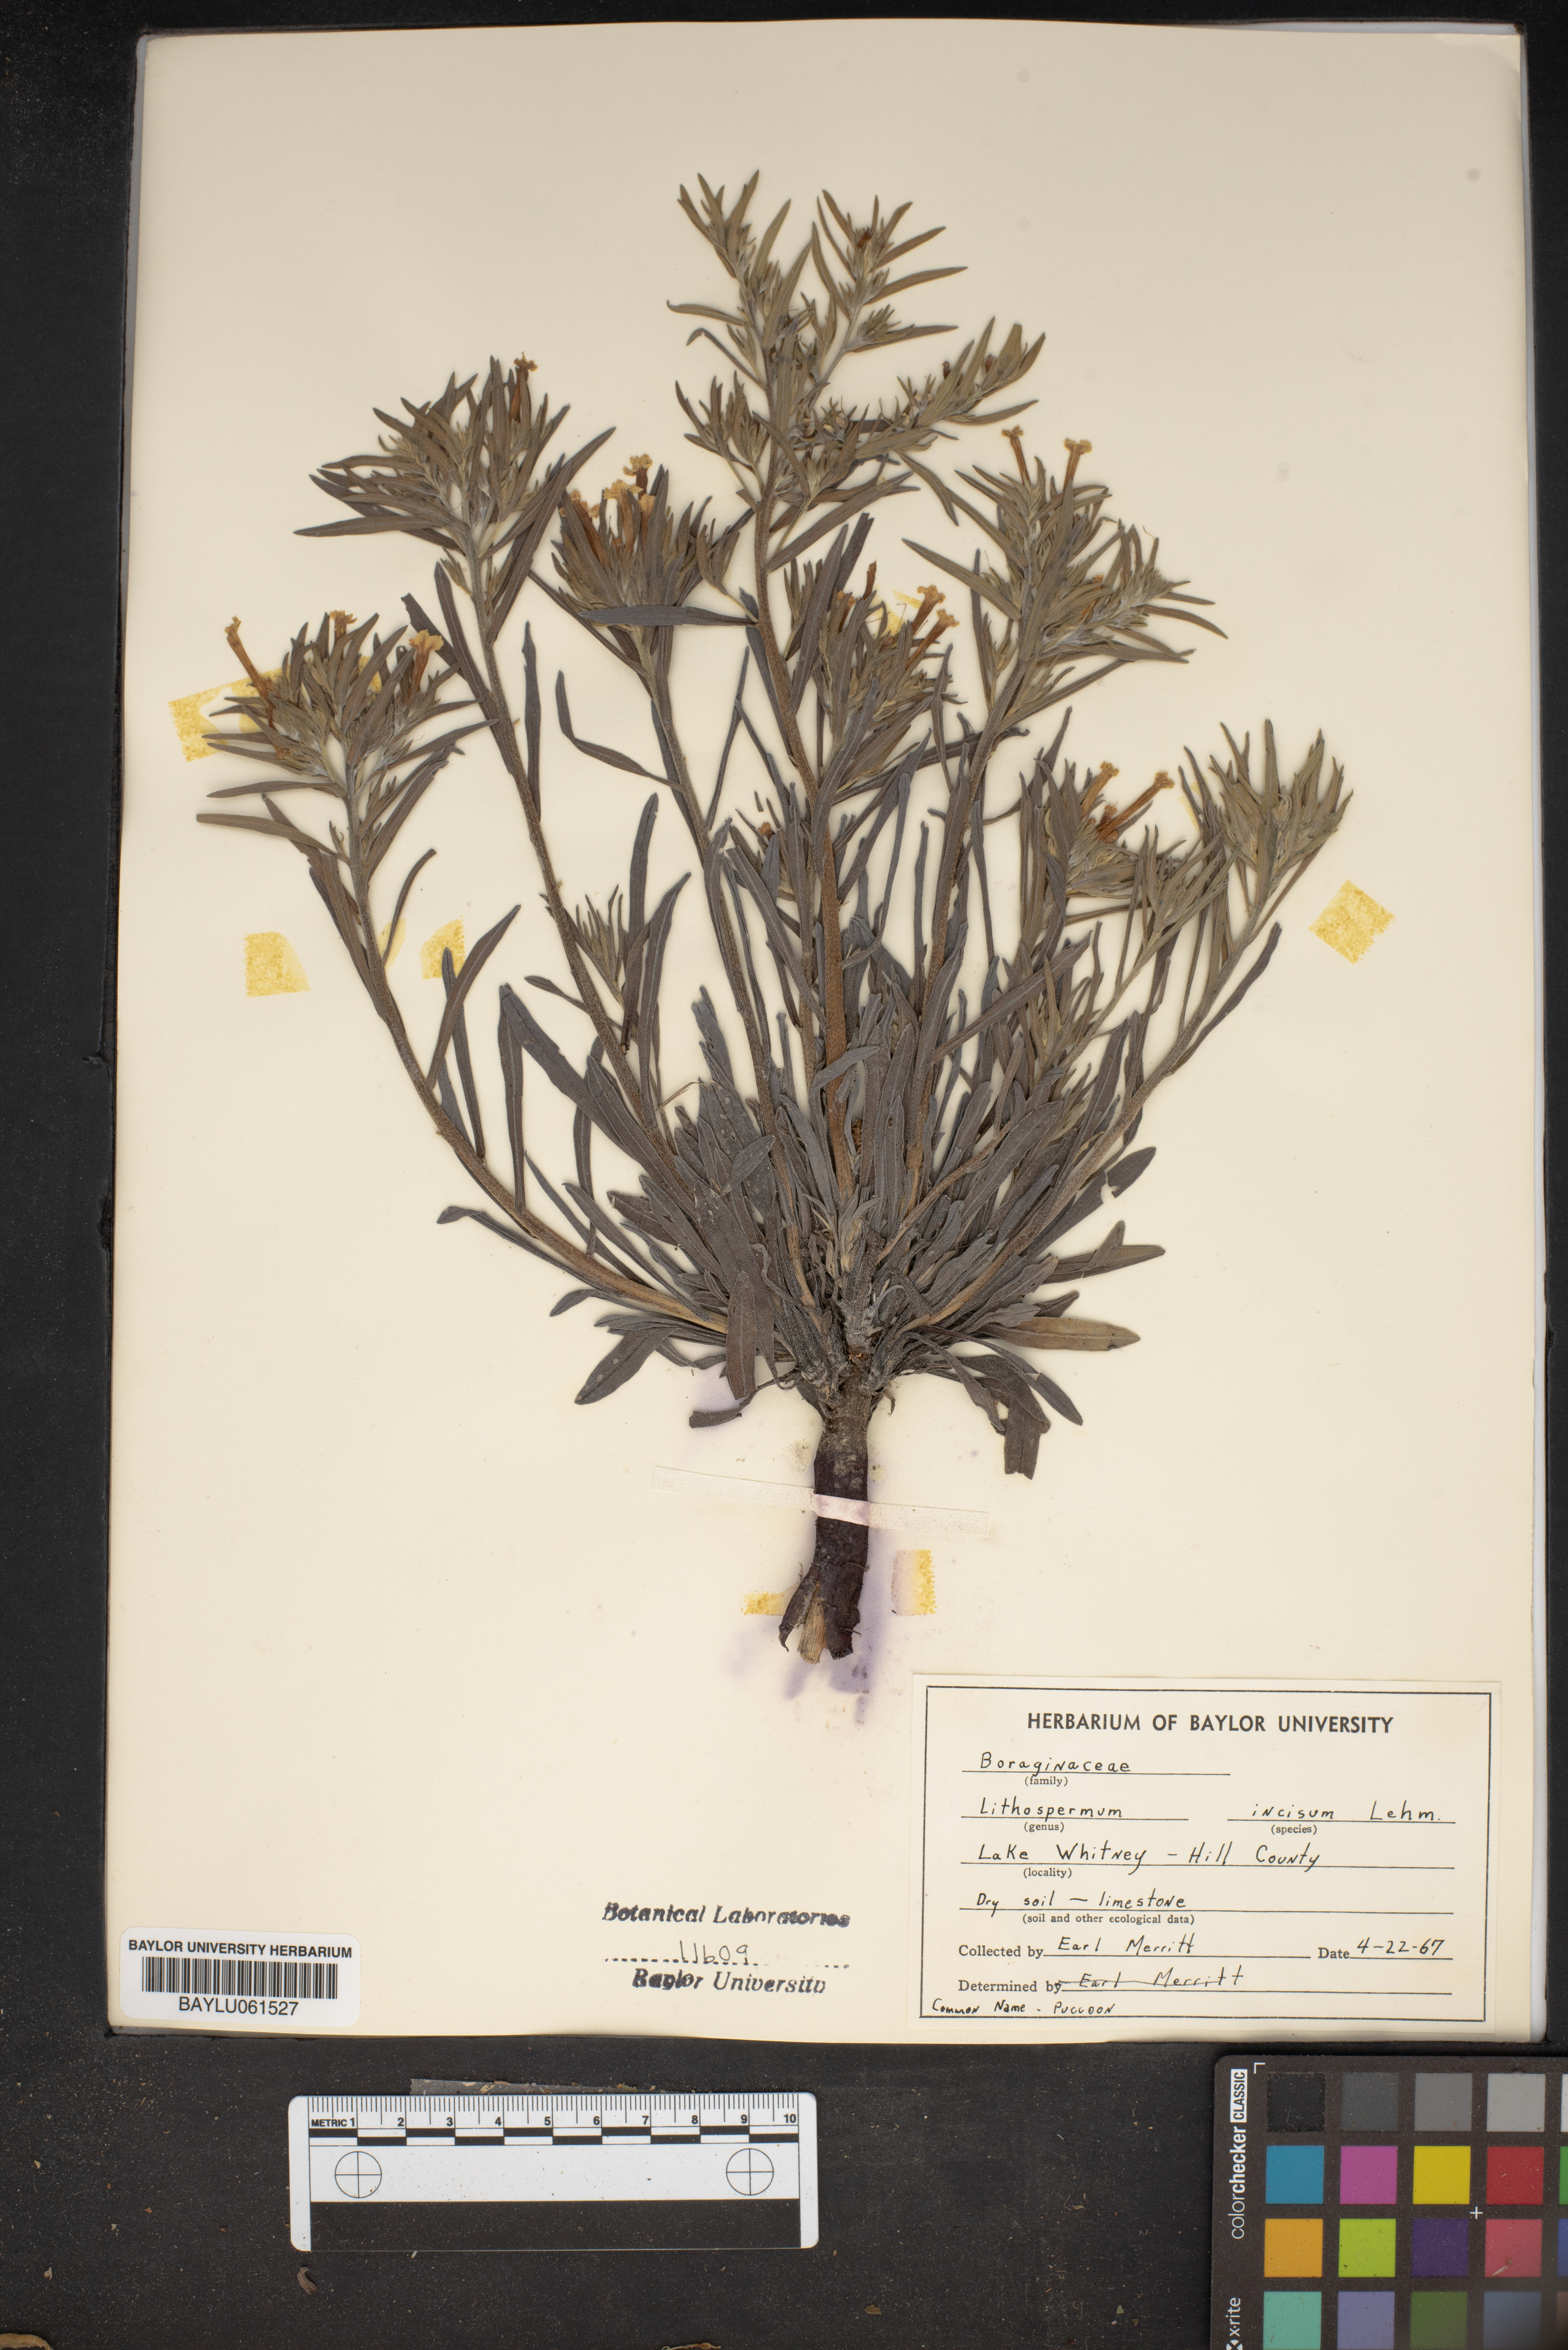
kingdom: Plantae
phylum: Tracheophyta
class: Magnoliopsida
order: Boraginales
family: Boraginaceae
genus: Lithospermum
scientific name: Lithospermum incisum
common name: Fringed gromwell
